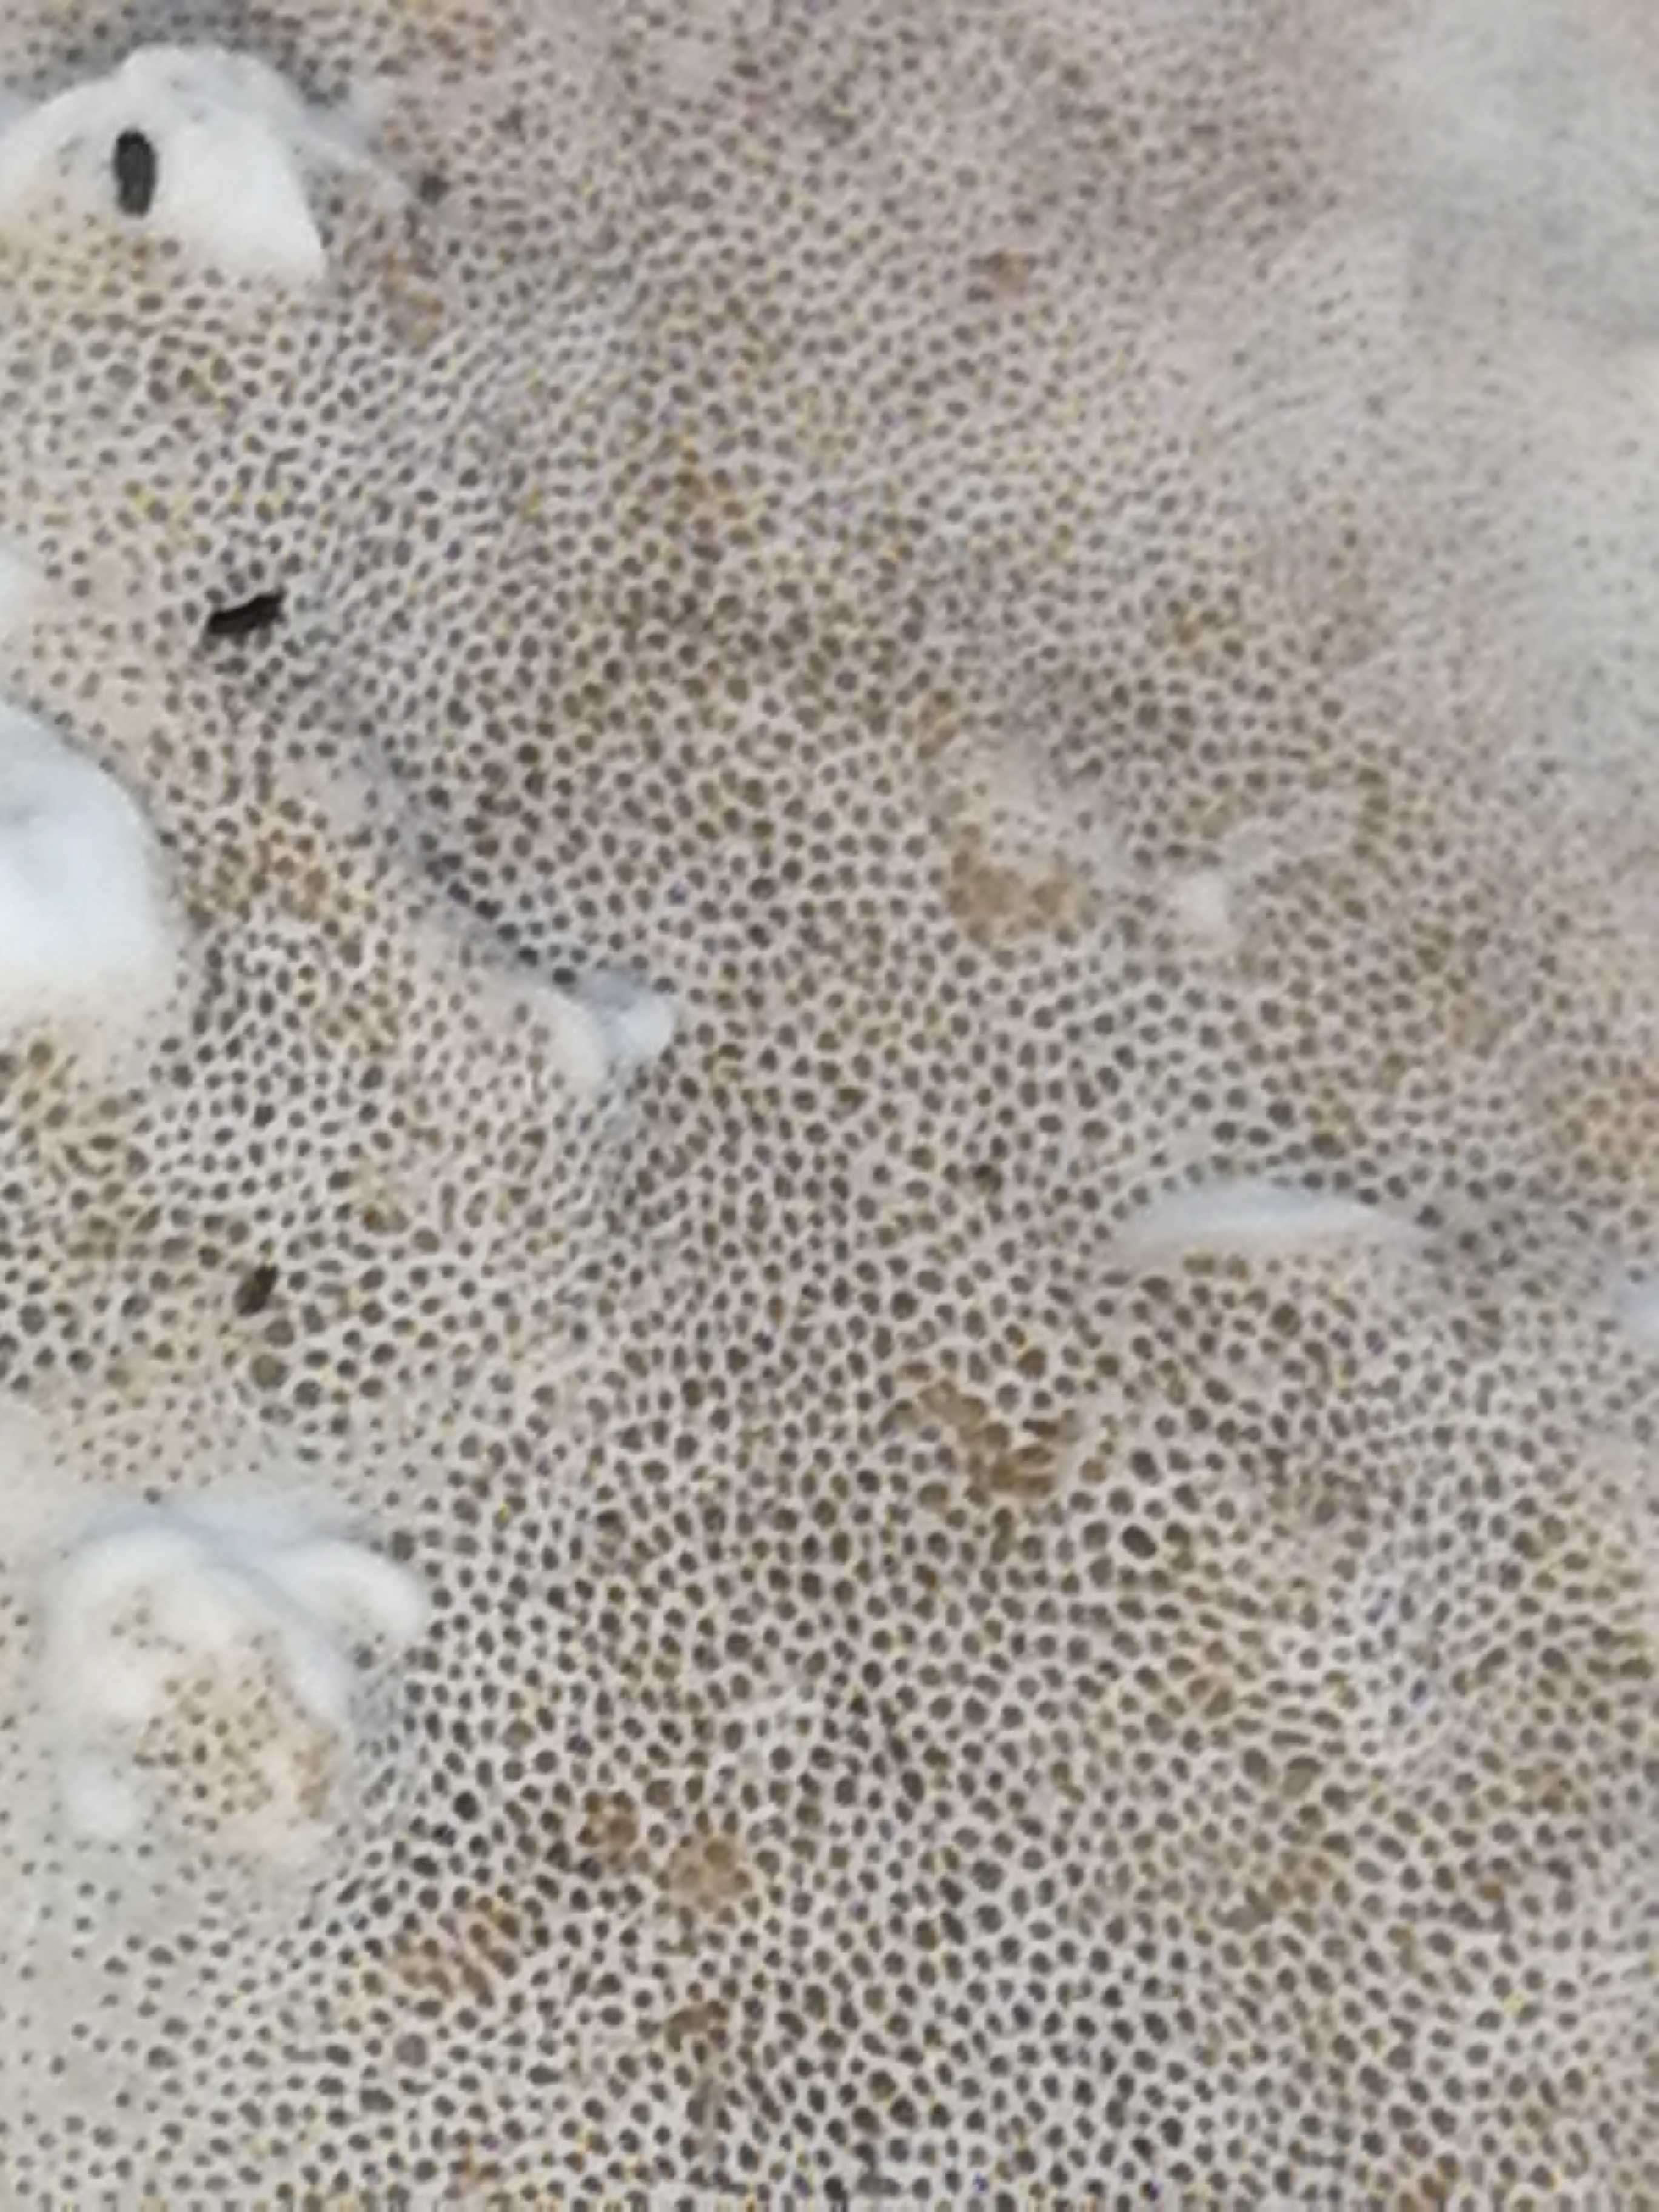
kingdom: Fungi
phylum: Basidiomycota
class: Agaricomycetes
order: Polyporales
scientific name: Polyporales
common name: poresvampordenen
